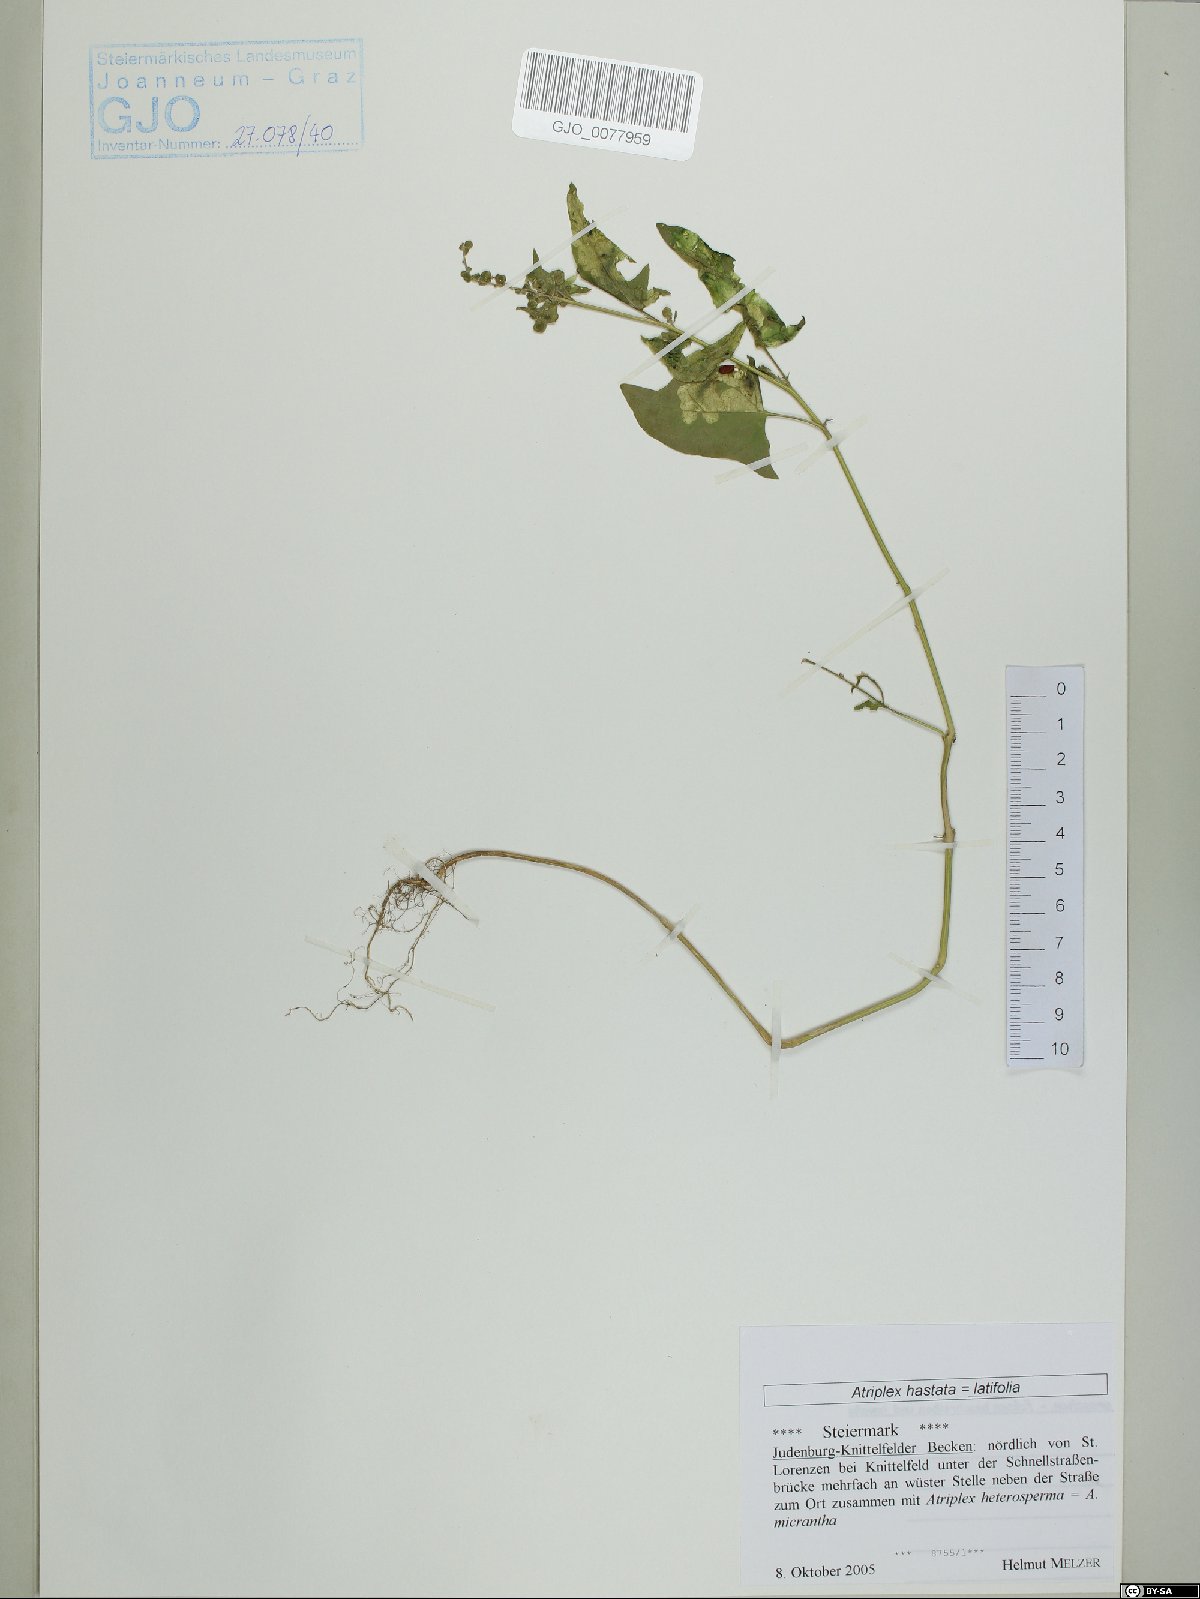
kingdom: Plantae
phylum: Tracheophyta
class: Magnoliopsida
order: Caryophyllales
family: Amaranthaceae
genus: Atriplex
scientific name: Atriplex calotheca
